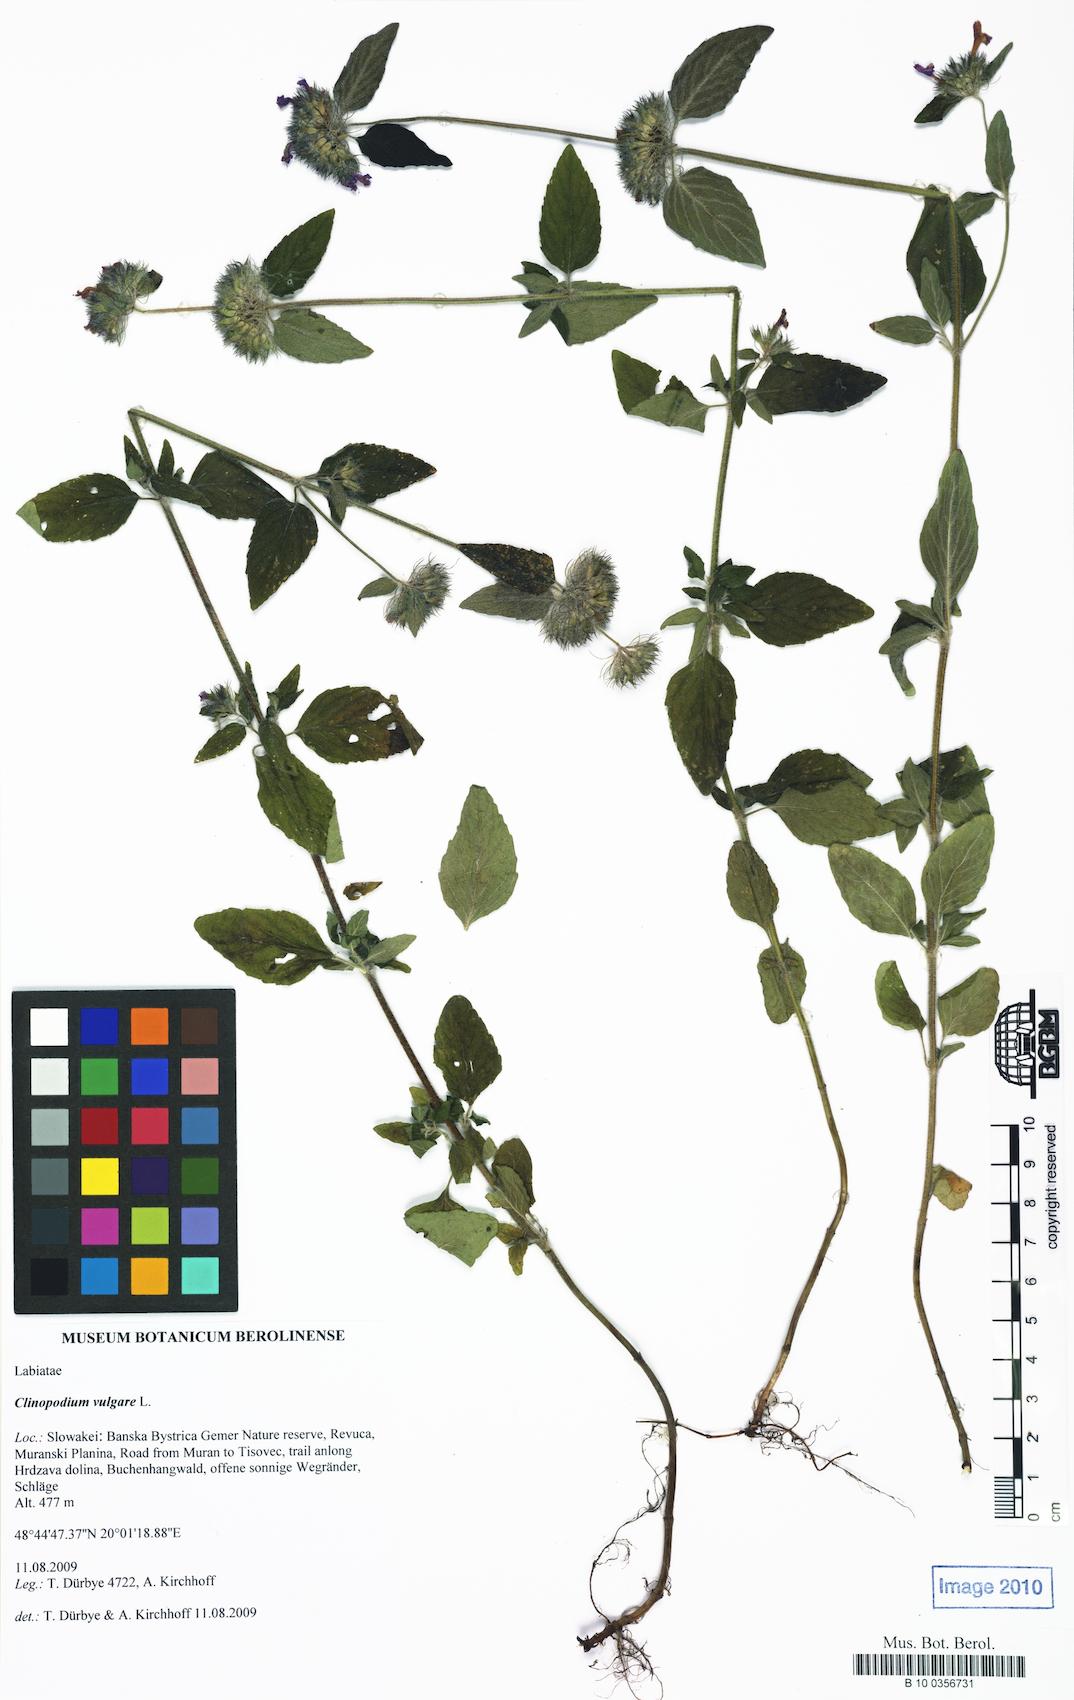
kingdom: Plantae
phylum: Tracheophyta
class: Magnoliopsida
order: Lamiales
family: Lamiaceae
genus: Clinopodium
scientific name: Clinopodium vulgare
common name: Wild basil
